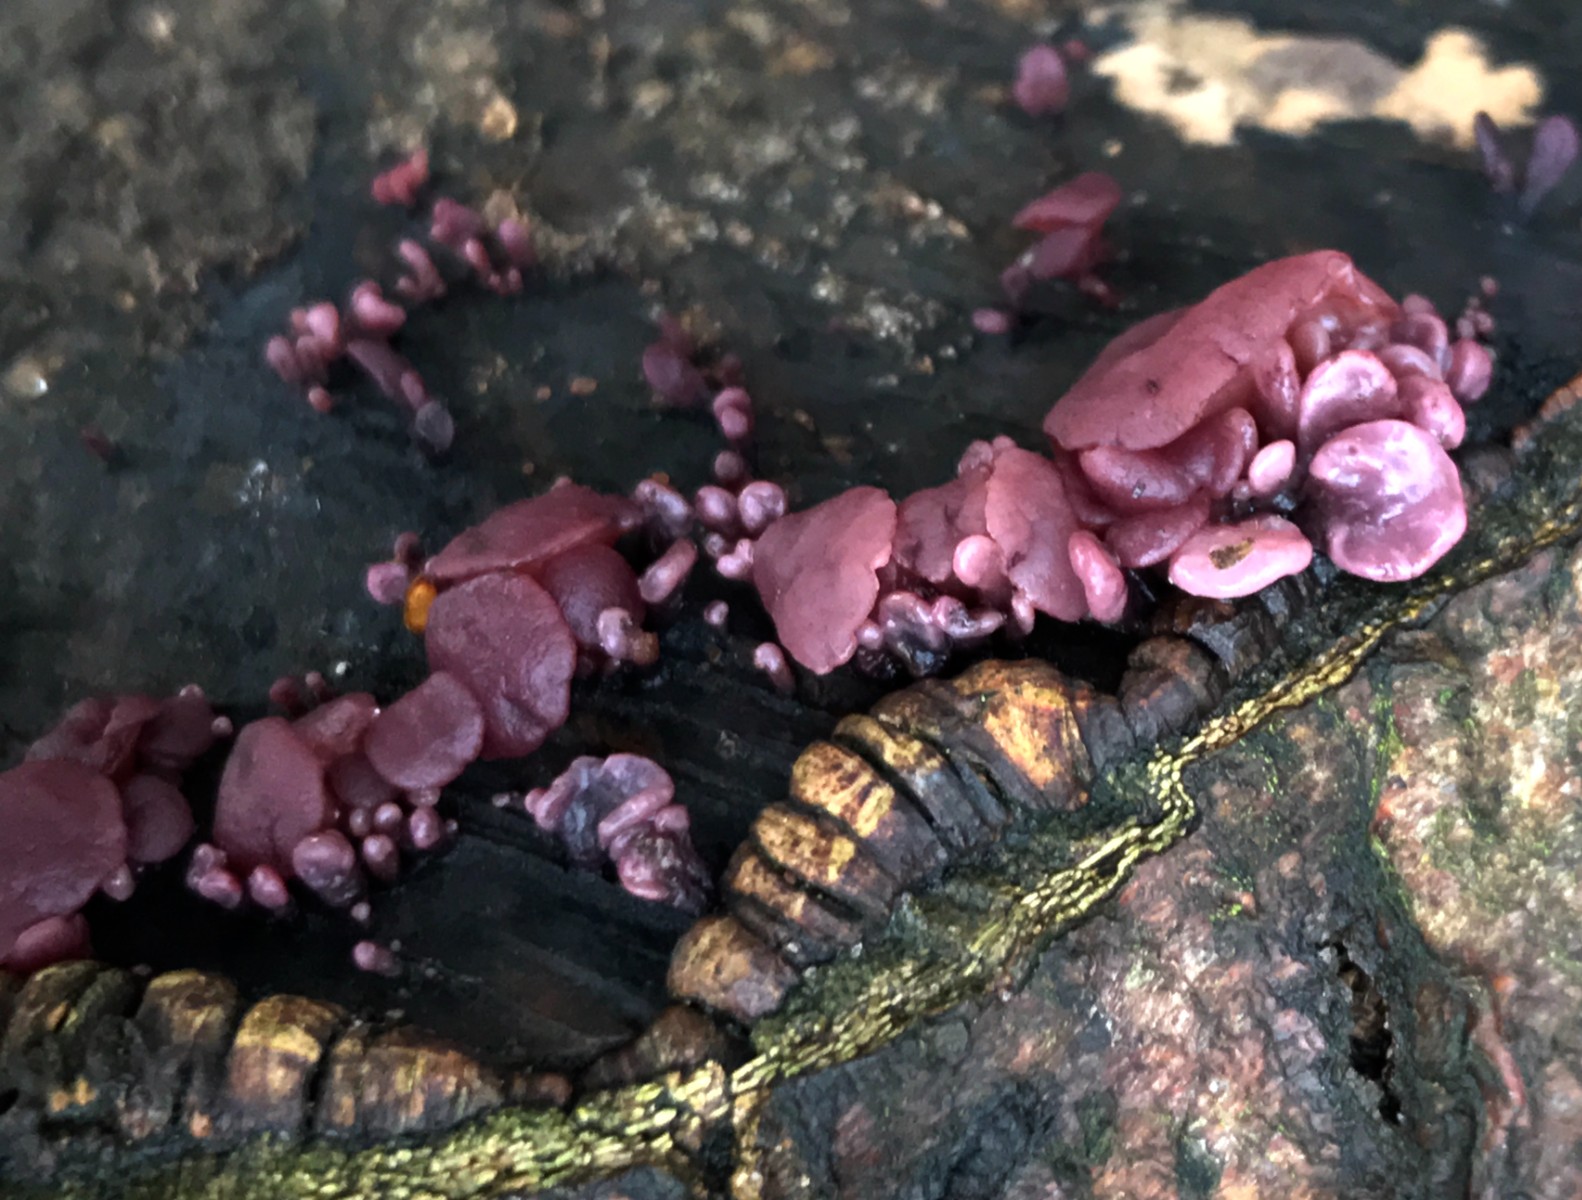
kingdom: Fungi
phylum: Ascomycota
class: Leotiomycetes
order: Helotiales
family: Gelatinodiscaceae
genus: Ascocoryne
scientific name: Ascocoryne sarcoides
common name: rødlilla sejskive
